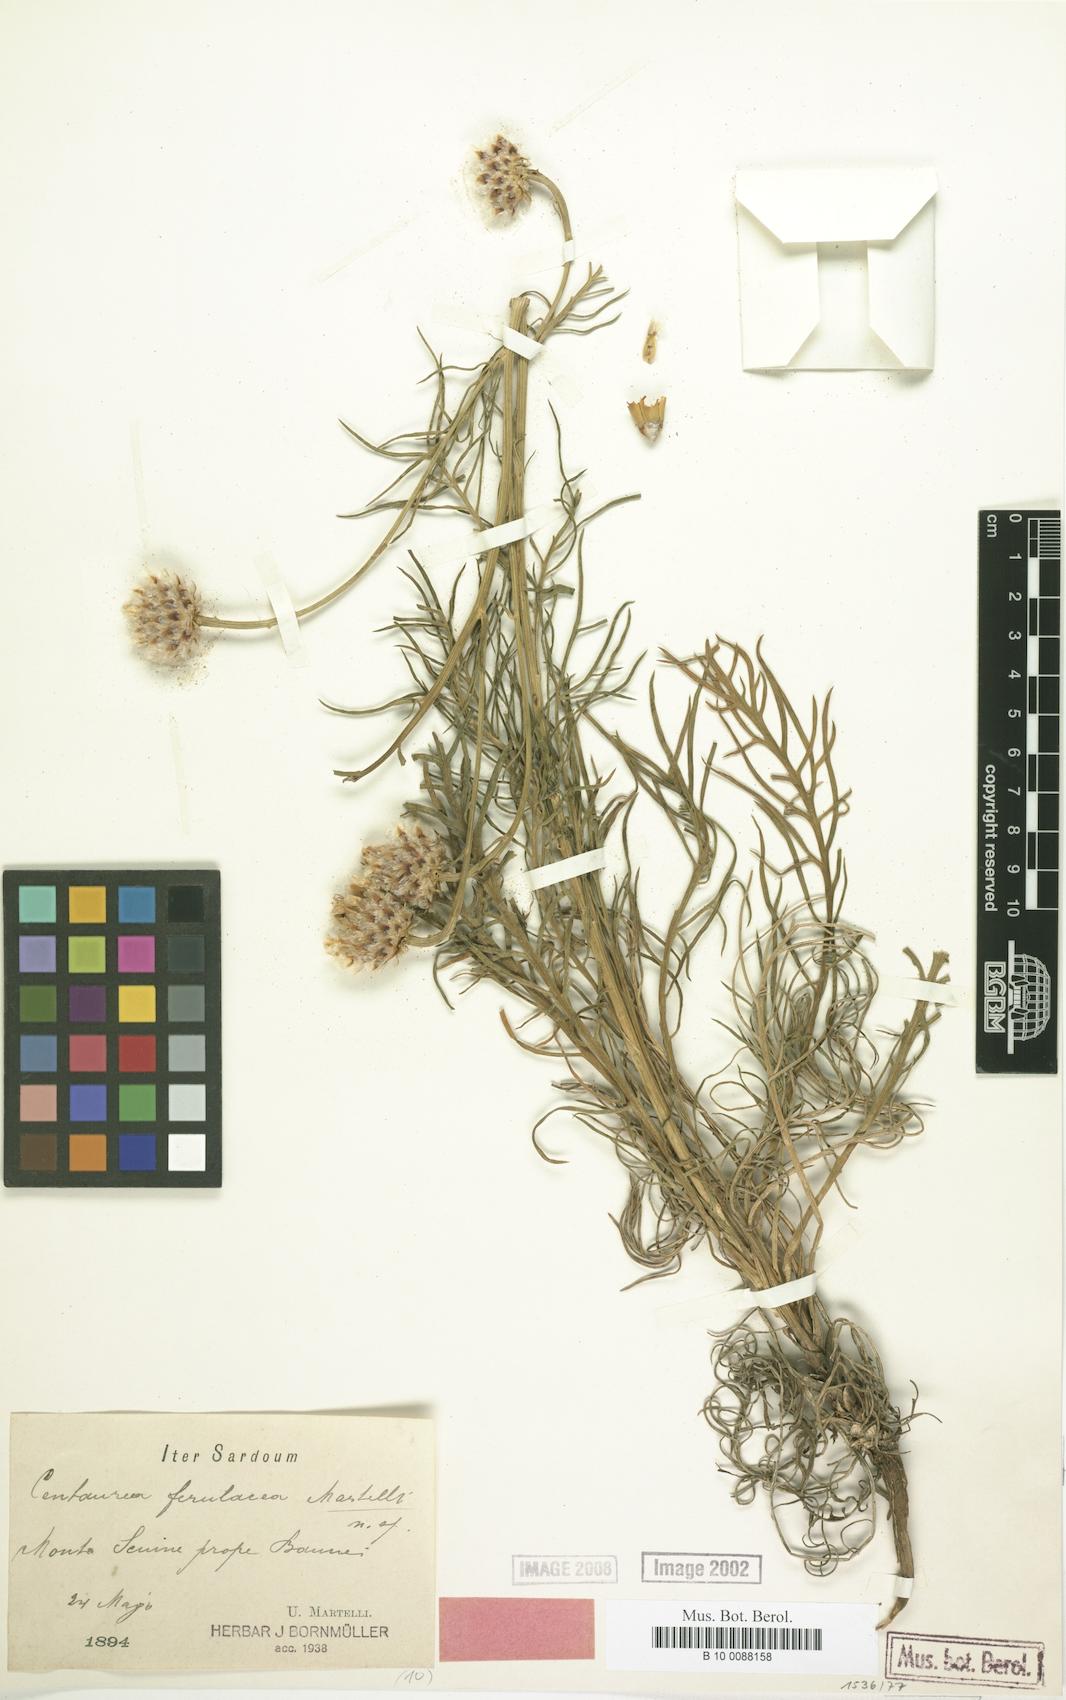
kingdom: Plantae
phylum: Tracheophyta
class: Magnoliopsida
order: Asterales
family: Asteraceae
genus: Centaurea
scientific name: Centaurea filiformis
